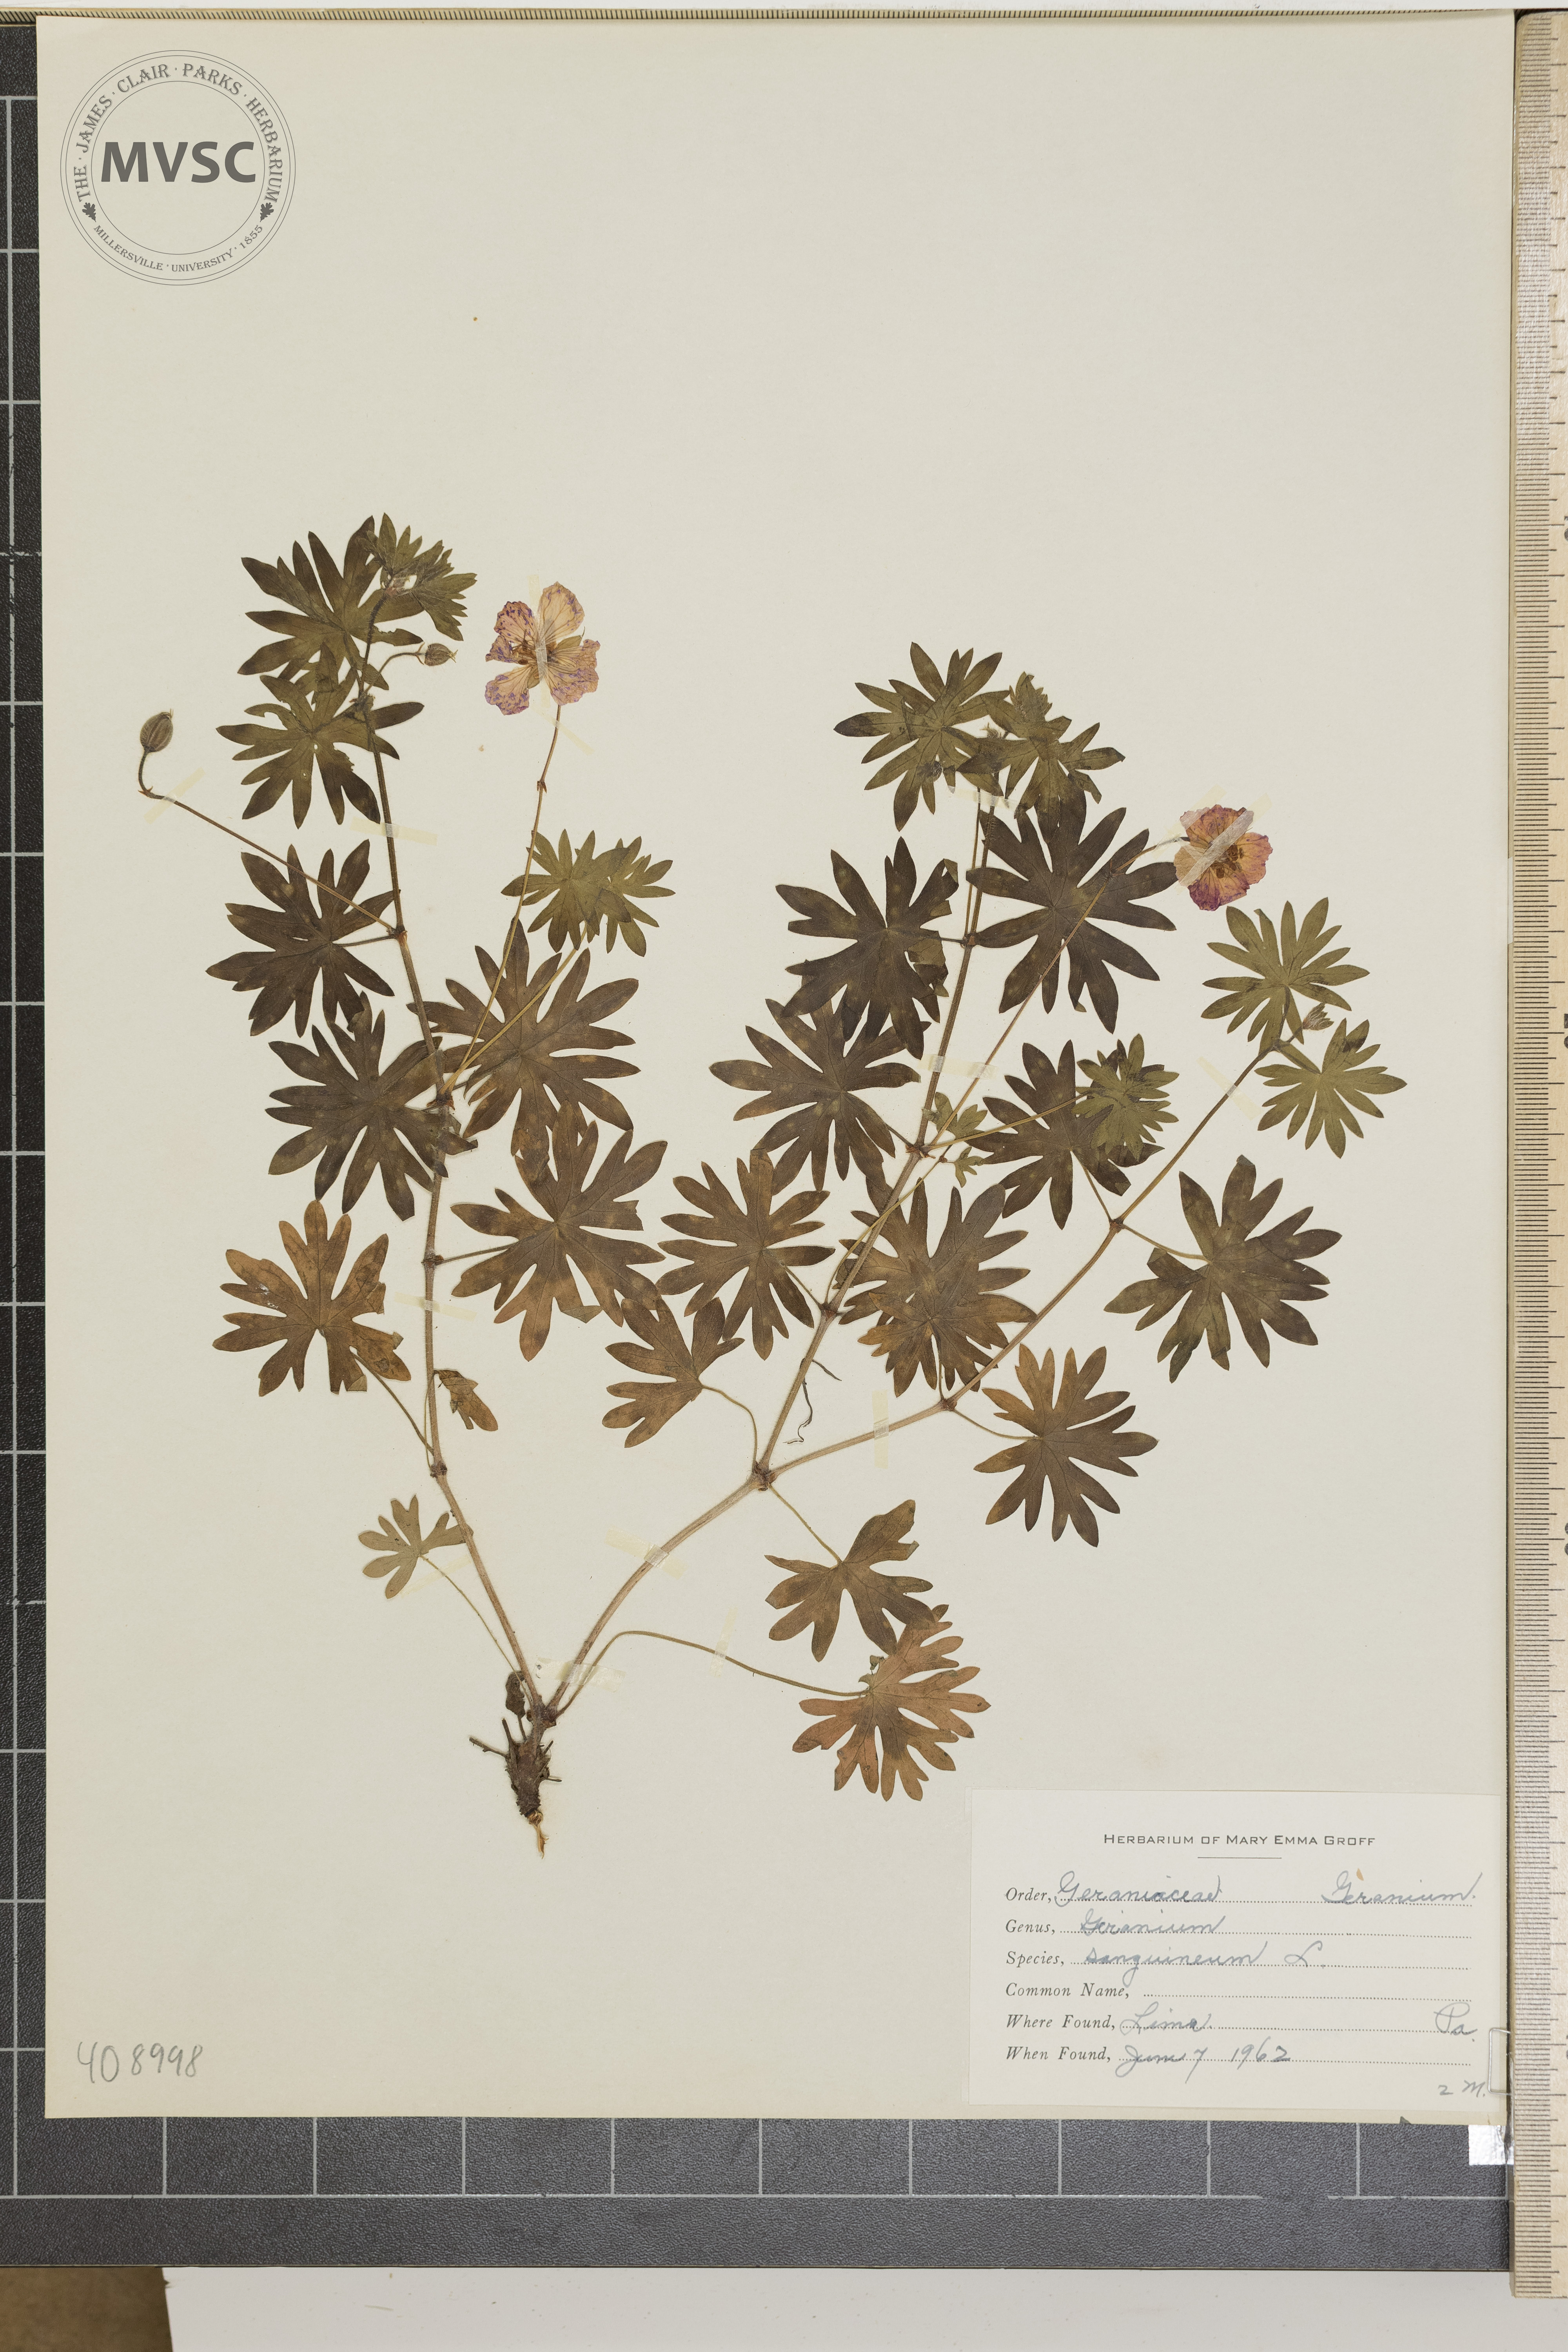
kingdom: Plantae
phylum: Tracheophyta
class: Magnoliopsida
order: Geraniales
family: Geraniaceae
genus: Geranium
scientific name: Geranium sanguineum
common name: Bloody crane's-bill
